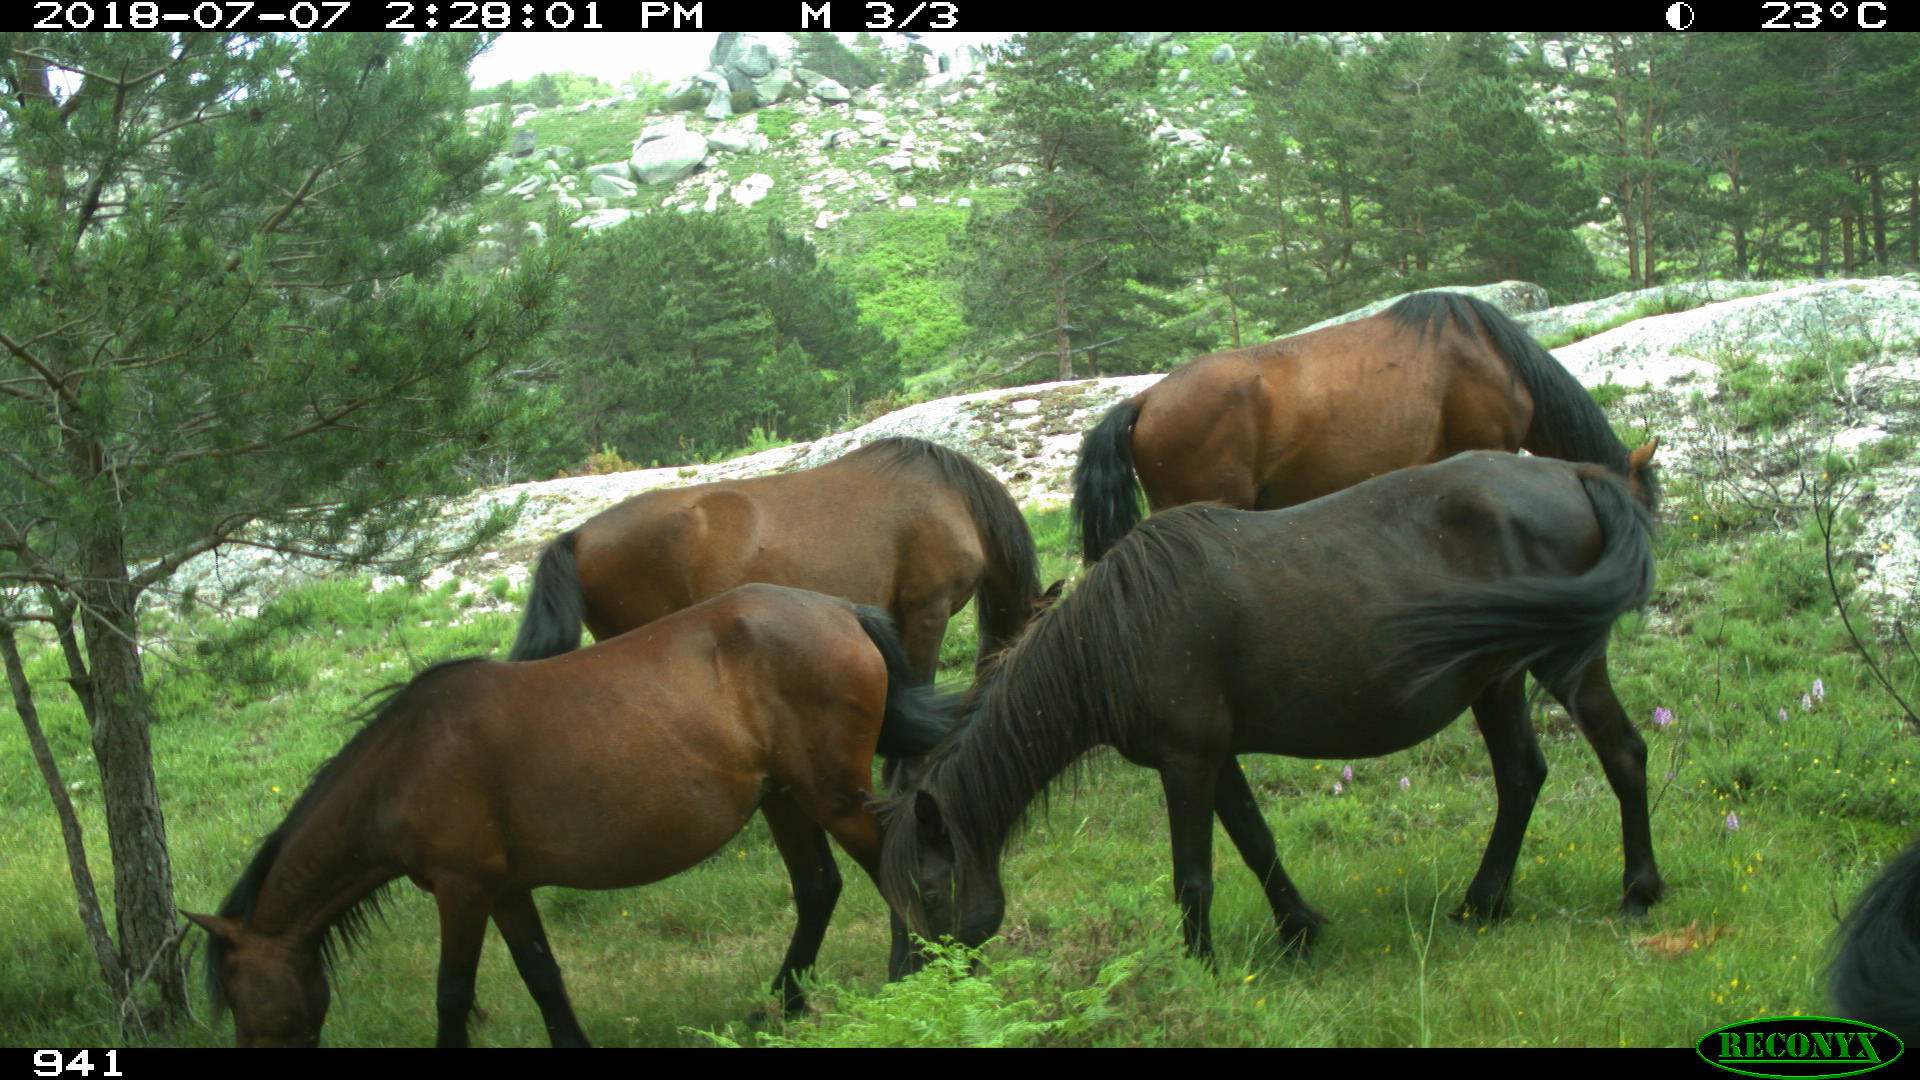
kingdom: Animalia
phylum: Chordata
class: Mammalia
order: Perissodactyla
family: Equidae
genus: Equus
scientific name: Equus caballus
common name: Horse
